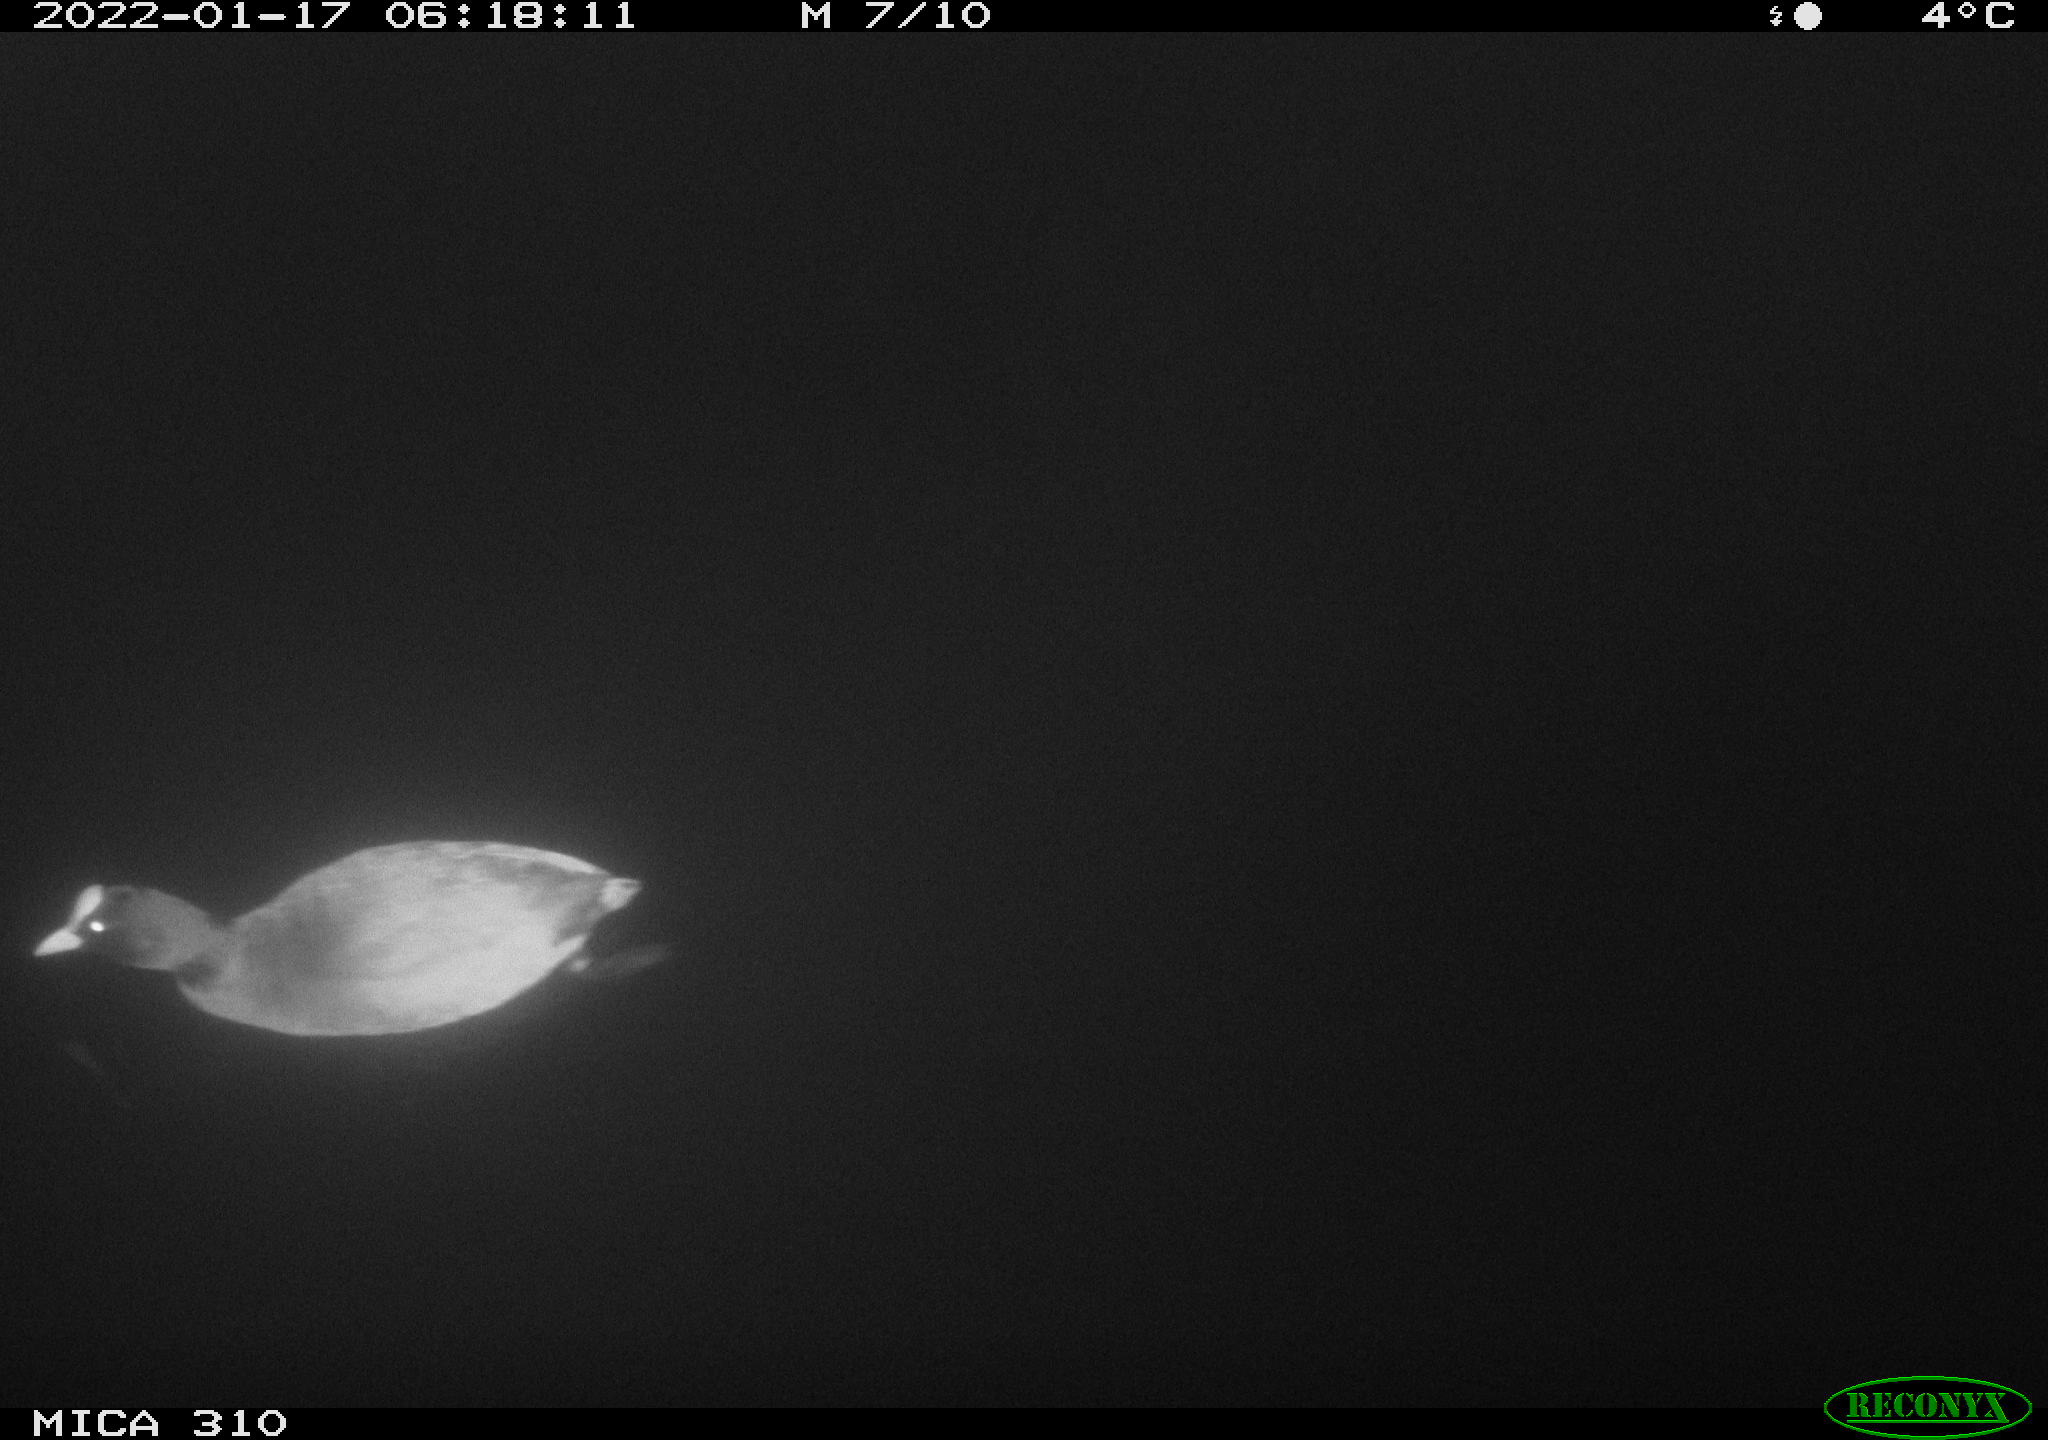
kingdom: Animalia
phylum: Chordata
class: Aves
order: Gruiformes
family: Rallidae
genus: Fulica
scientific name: Fulica atra
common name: Eurasian coot
